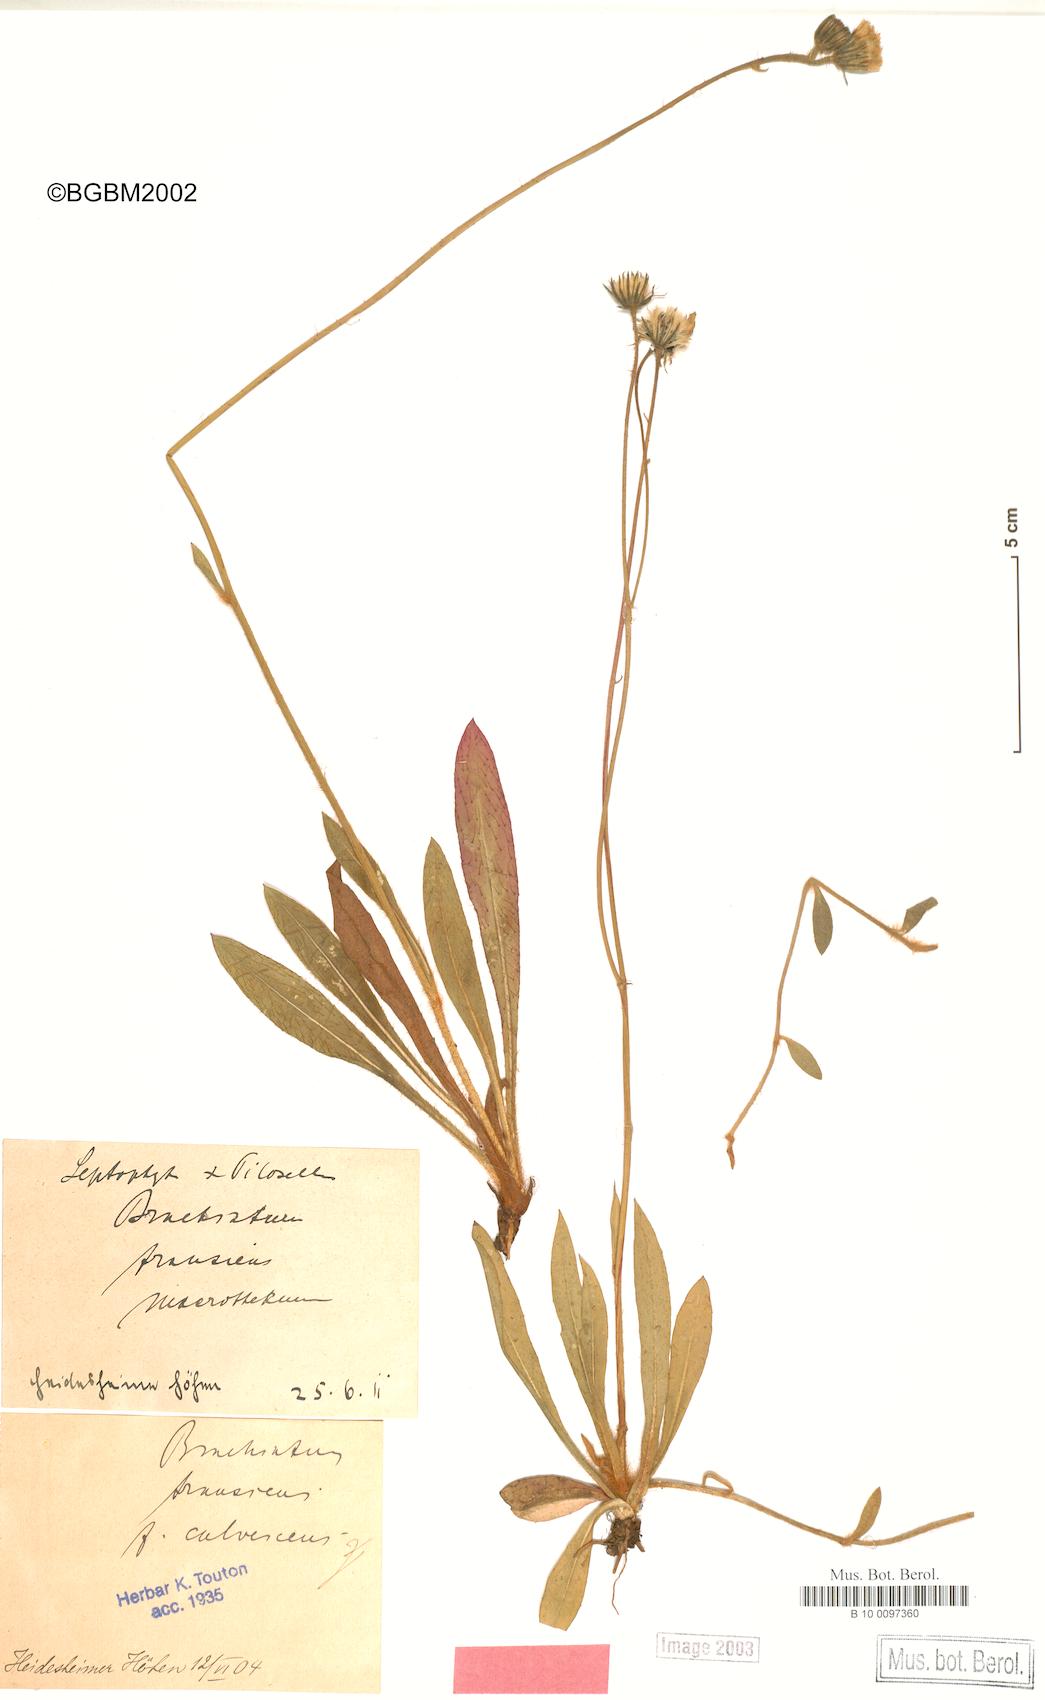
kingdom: Plantae
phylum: Tracheophyta
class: Magnoliopsida
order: Asterales
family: Asteraceae
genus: Pilosella
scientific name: Pilosella acutifolia
